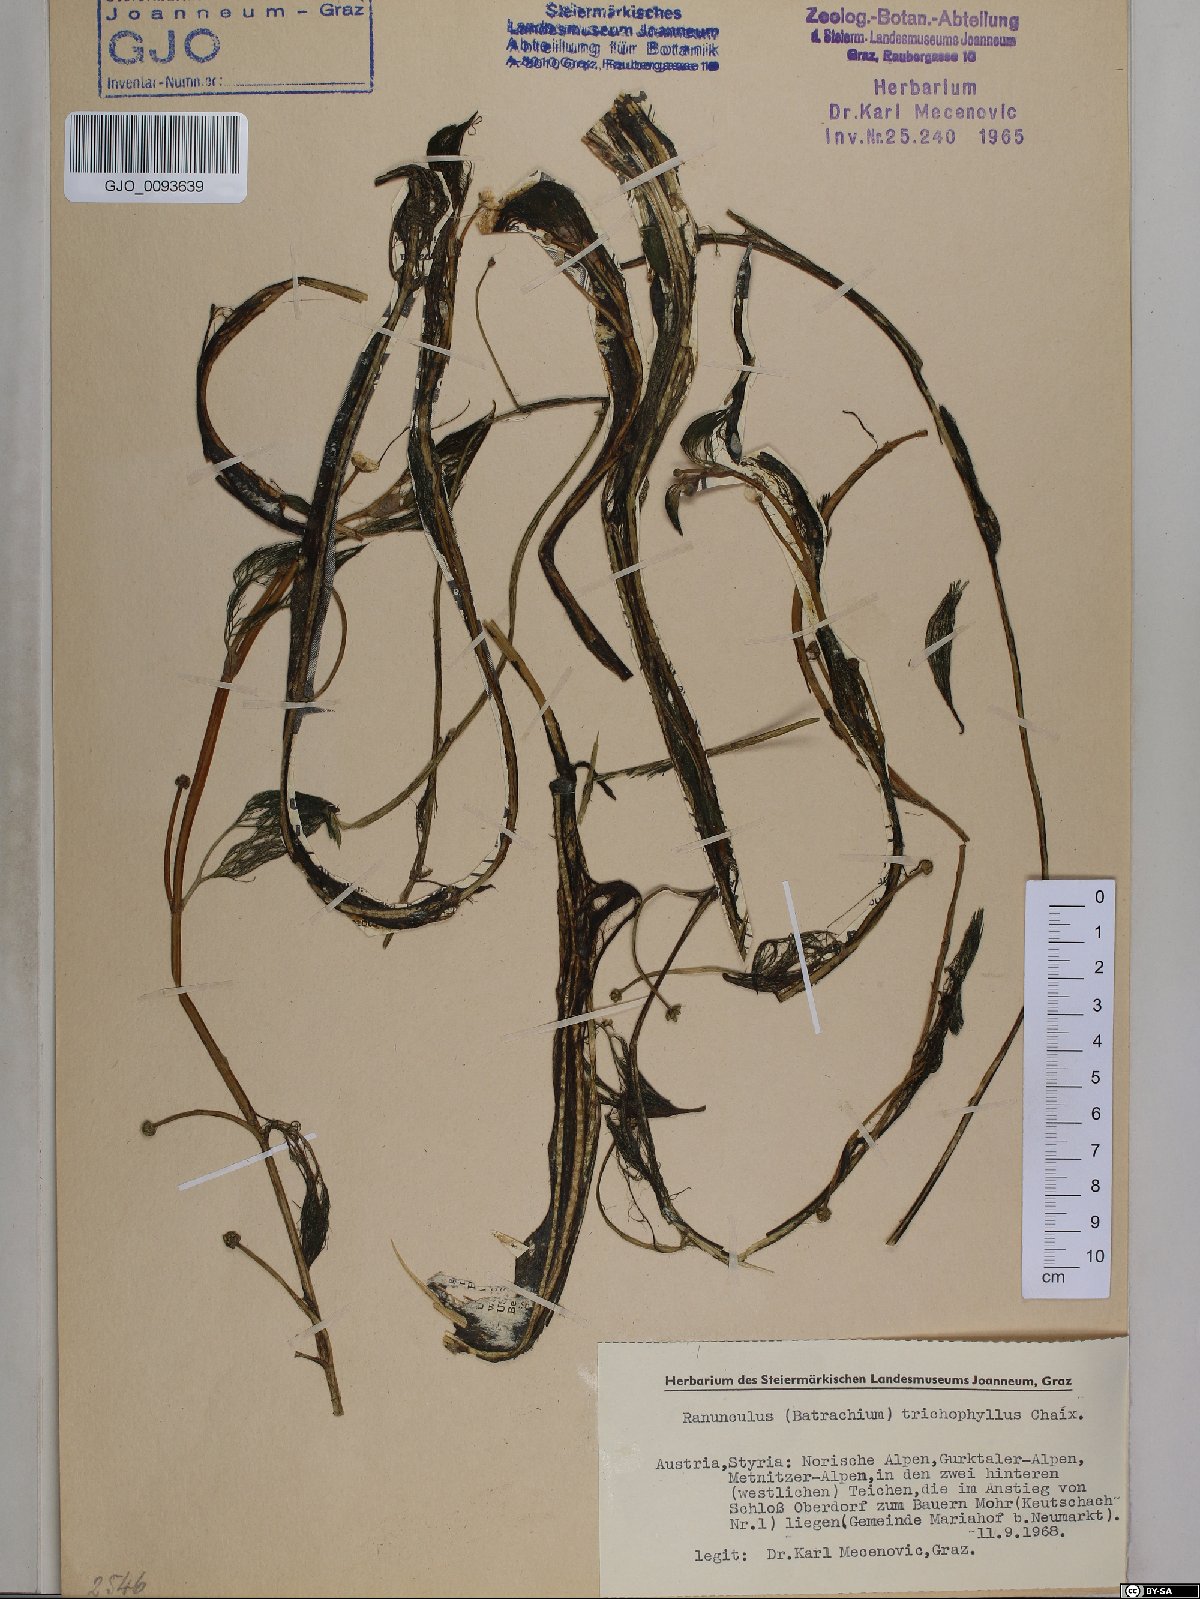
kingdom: Plantae
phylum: Tracheophyta
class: Magnoliopsida
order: Ranunculales
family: Ranunculaceae
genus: Ranunculus
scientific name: Ranunculus trichophyllus
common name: Thread-leaved water-crowfoot
